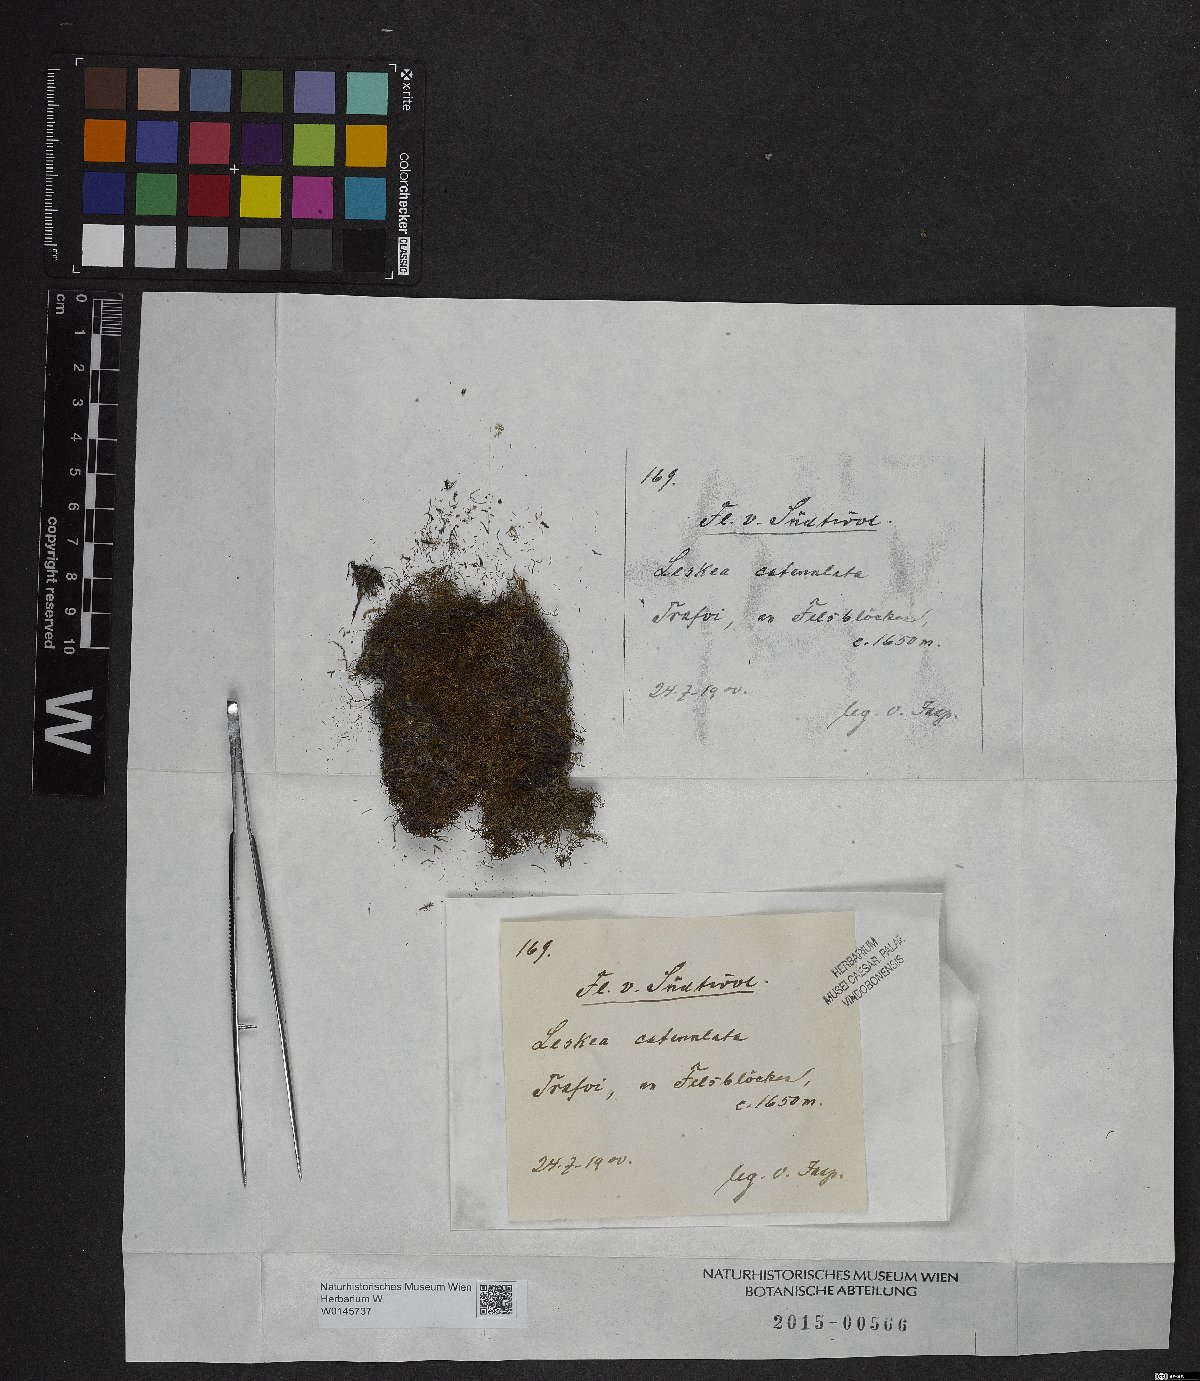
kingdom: Plantae
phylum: Bryophyta
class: Bryopsida
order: Hypnales
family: Pseudoleskeellaceae
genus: Pseudoleskeella
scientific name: Pseudoleskeella catenulata
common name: Chained leskea
